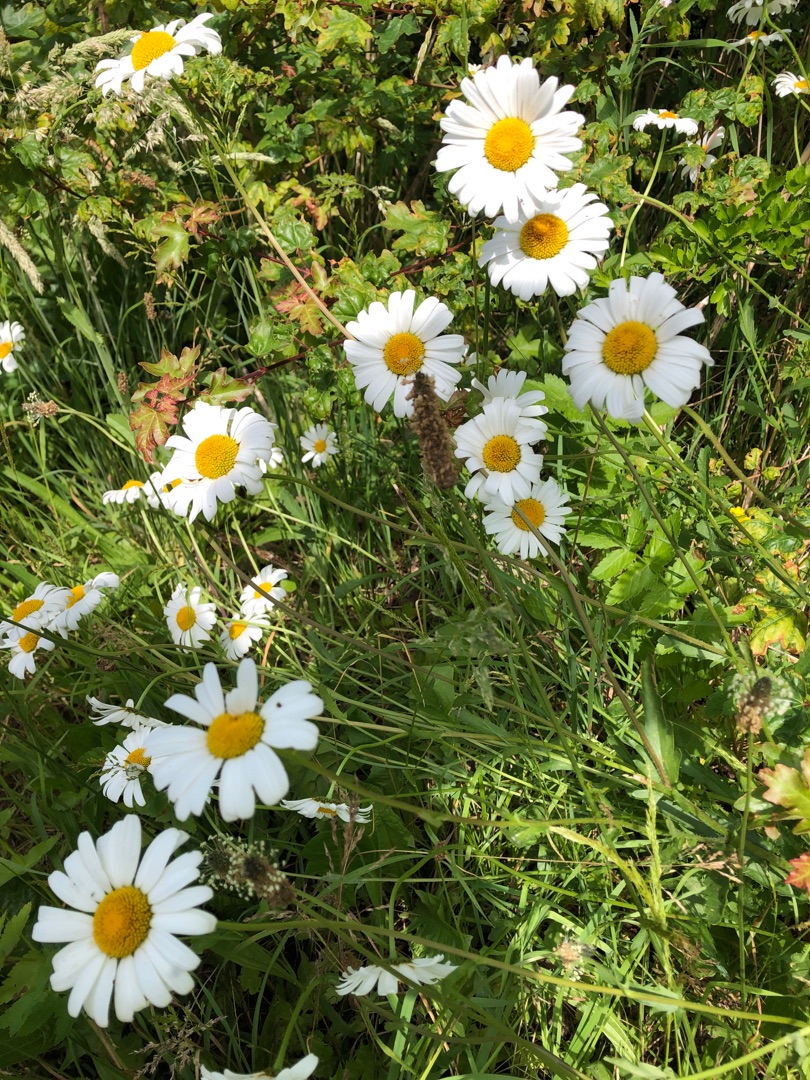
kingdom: Plantae
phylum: Tracheophyta
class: Magnoliopsida
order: Asterales
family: Asteraceae
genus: Leucanthemum
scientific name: Leucanthemum vulgare
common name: Hvid okseøje
